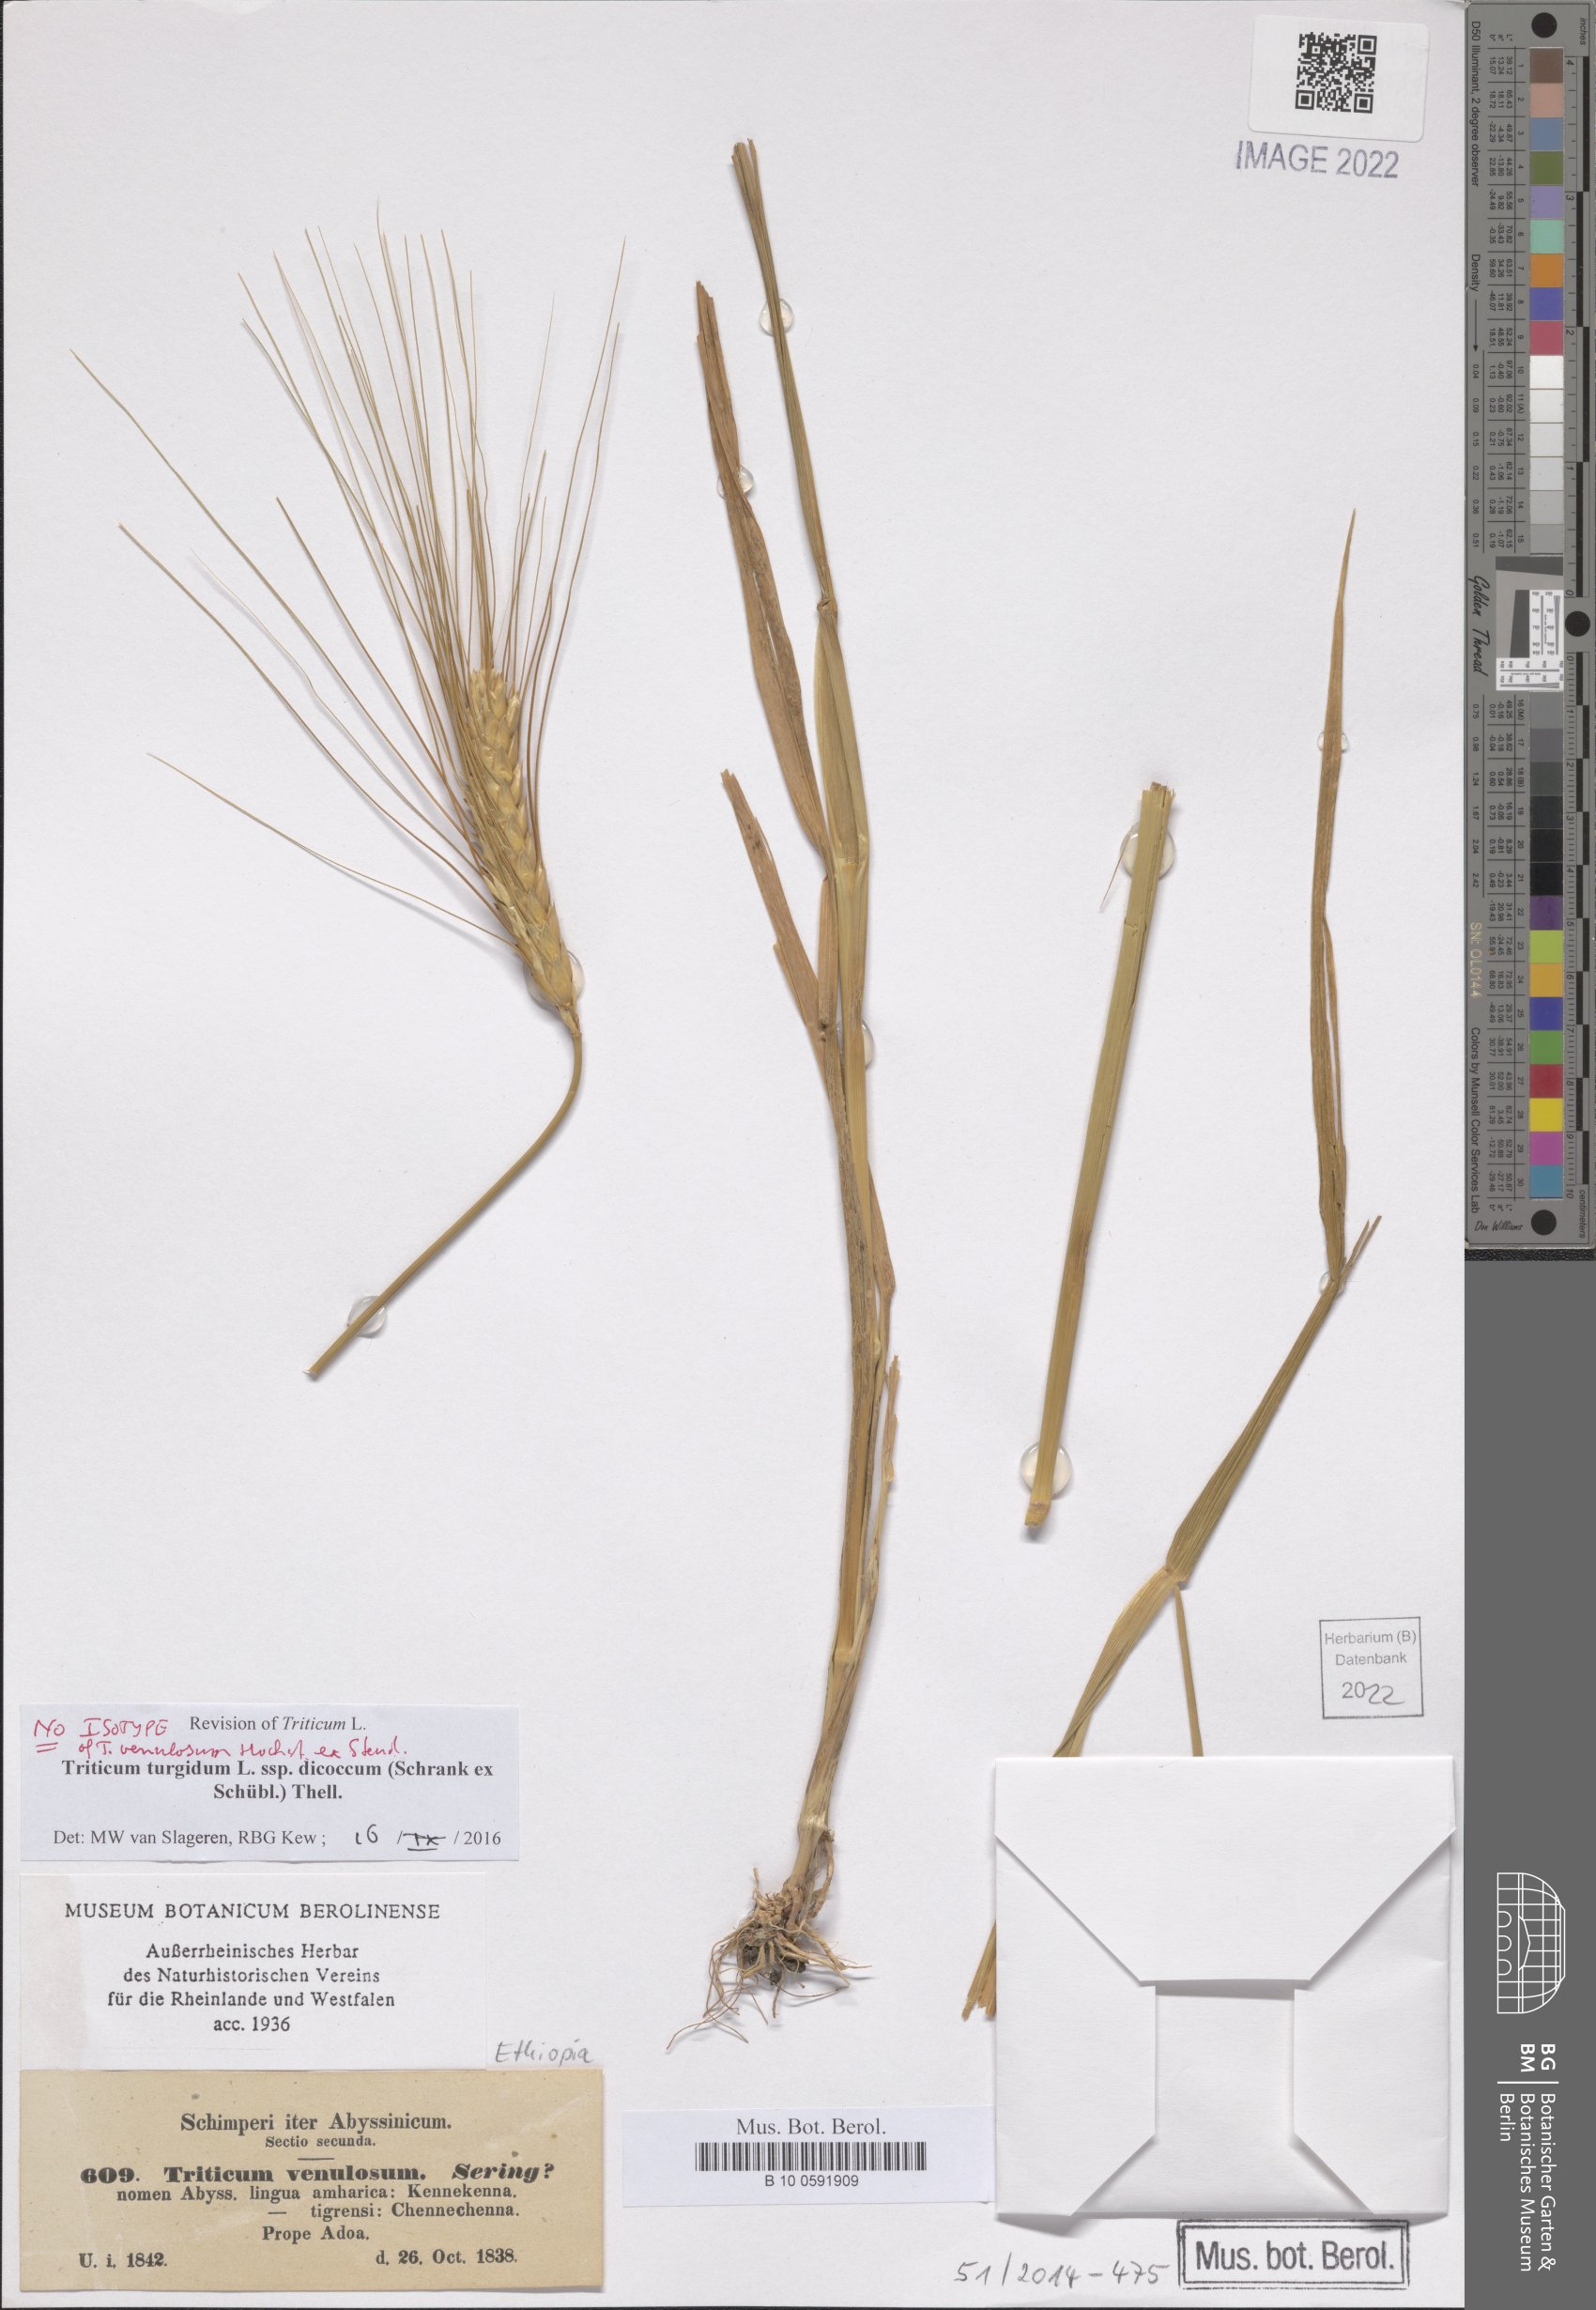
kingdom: Plantae
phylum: Tracheophyta
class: Liliopsida
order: Poales
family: Poaceae
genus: Triticum
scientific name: Triticum turgidum
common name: Rivet wheat
